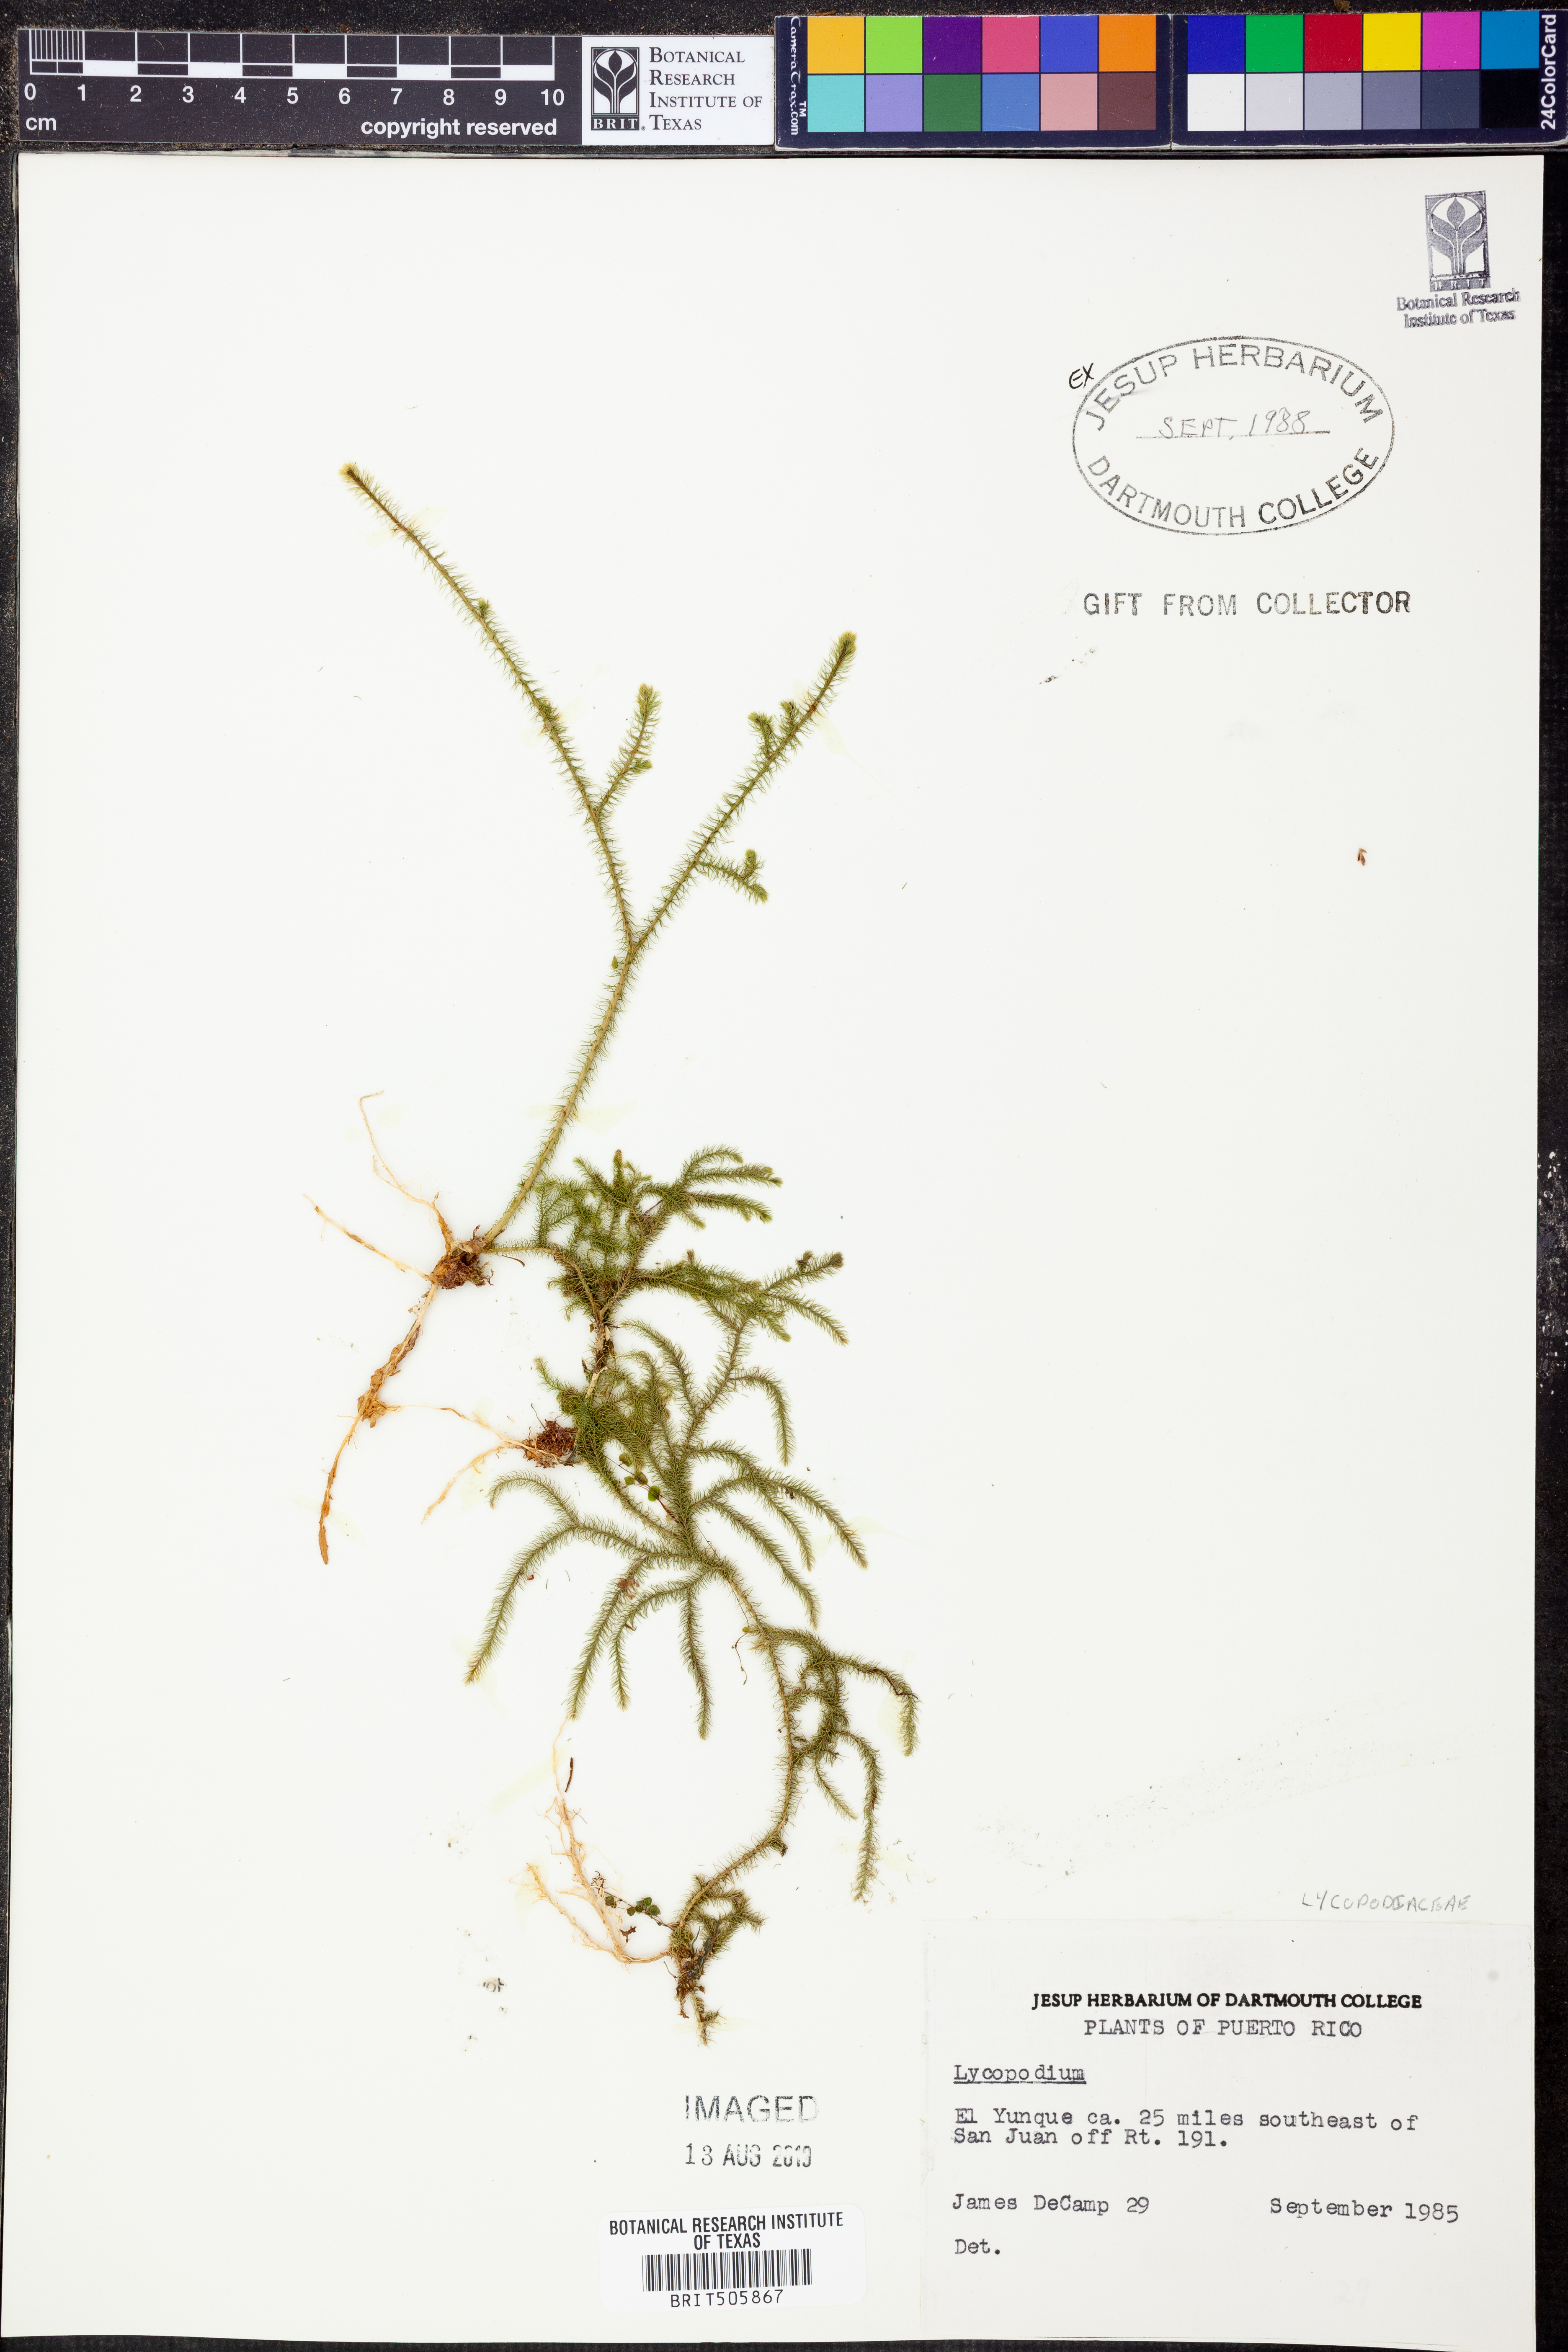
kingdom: Plantae
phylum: Tracheophyta
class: Lycopodiopsida
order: Lycopodiales
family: Lycopodiaceae
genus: Lycopodium
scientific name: Lycopodium
